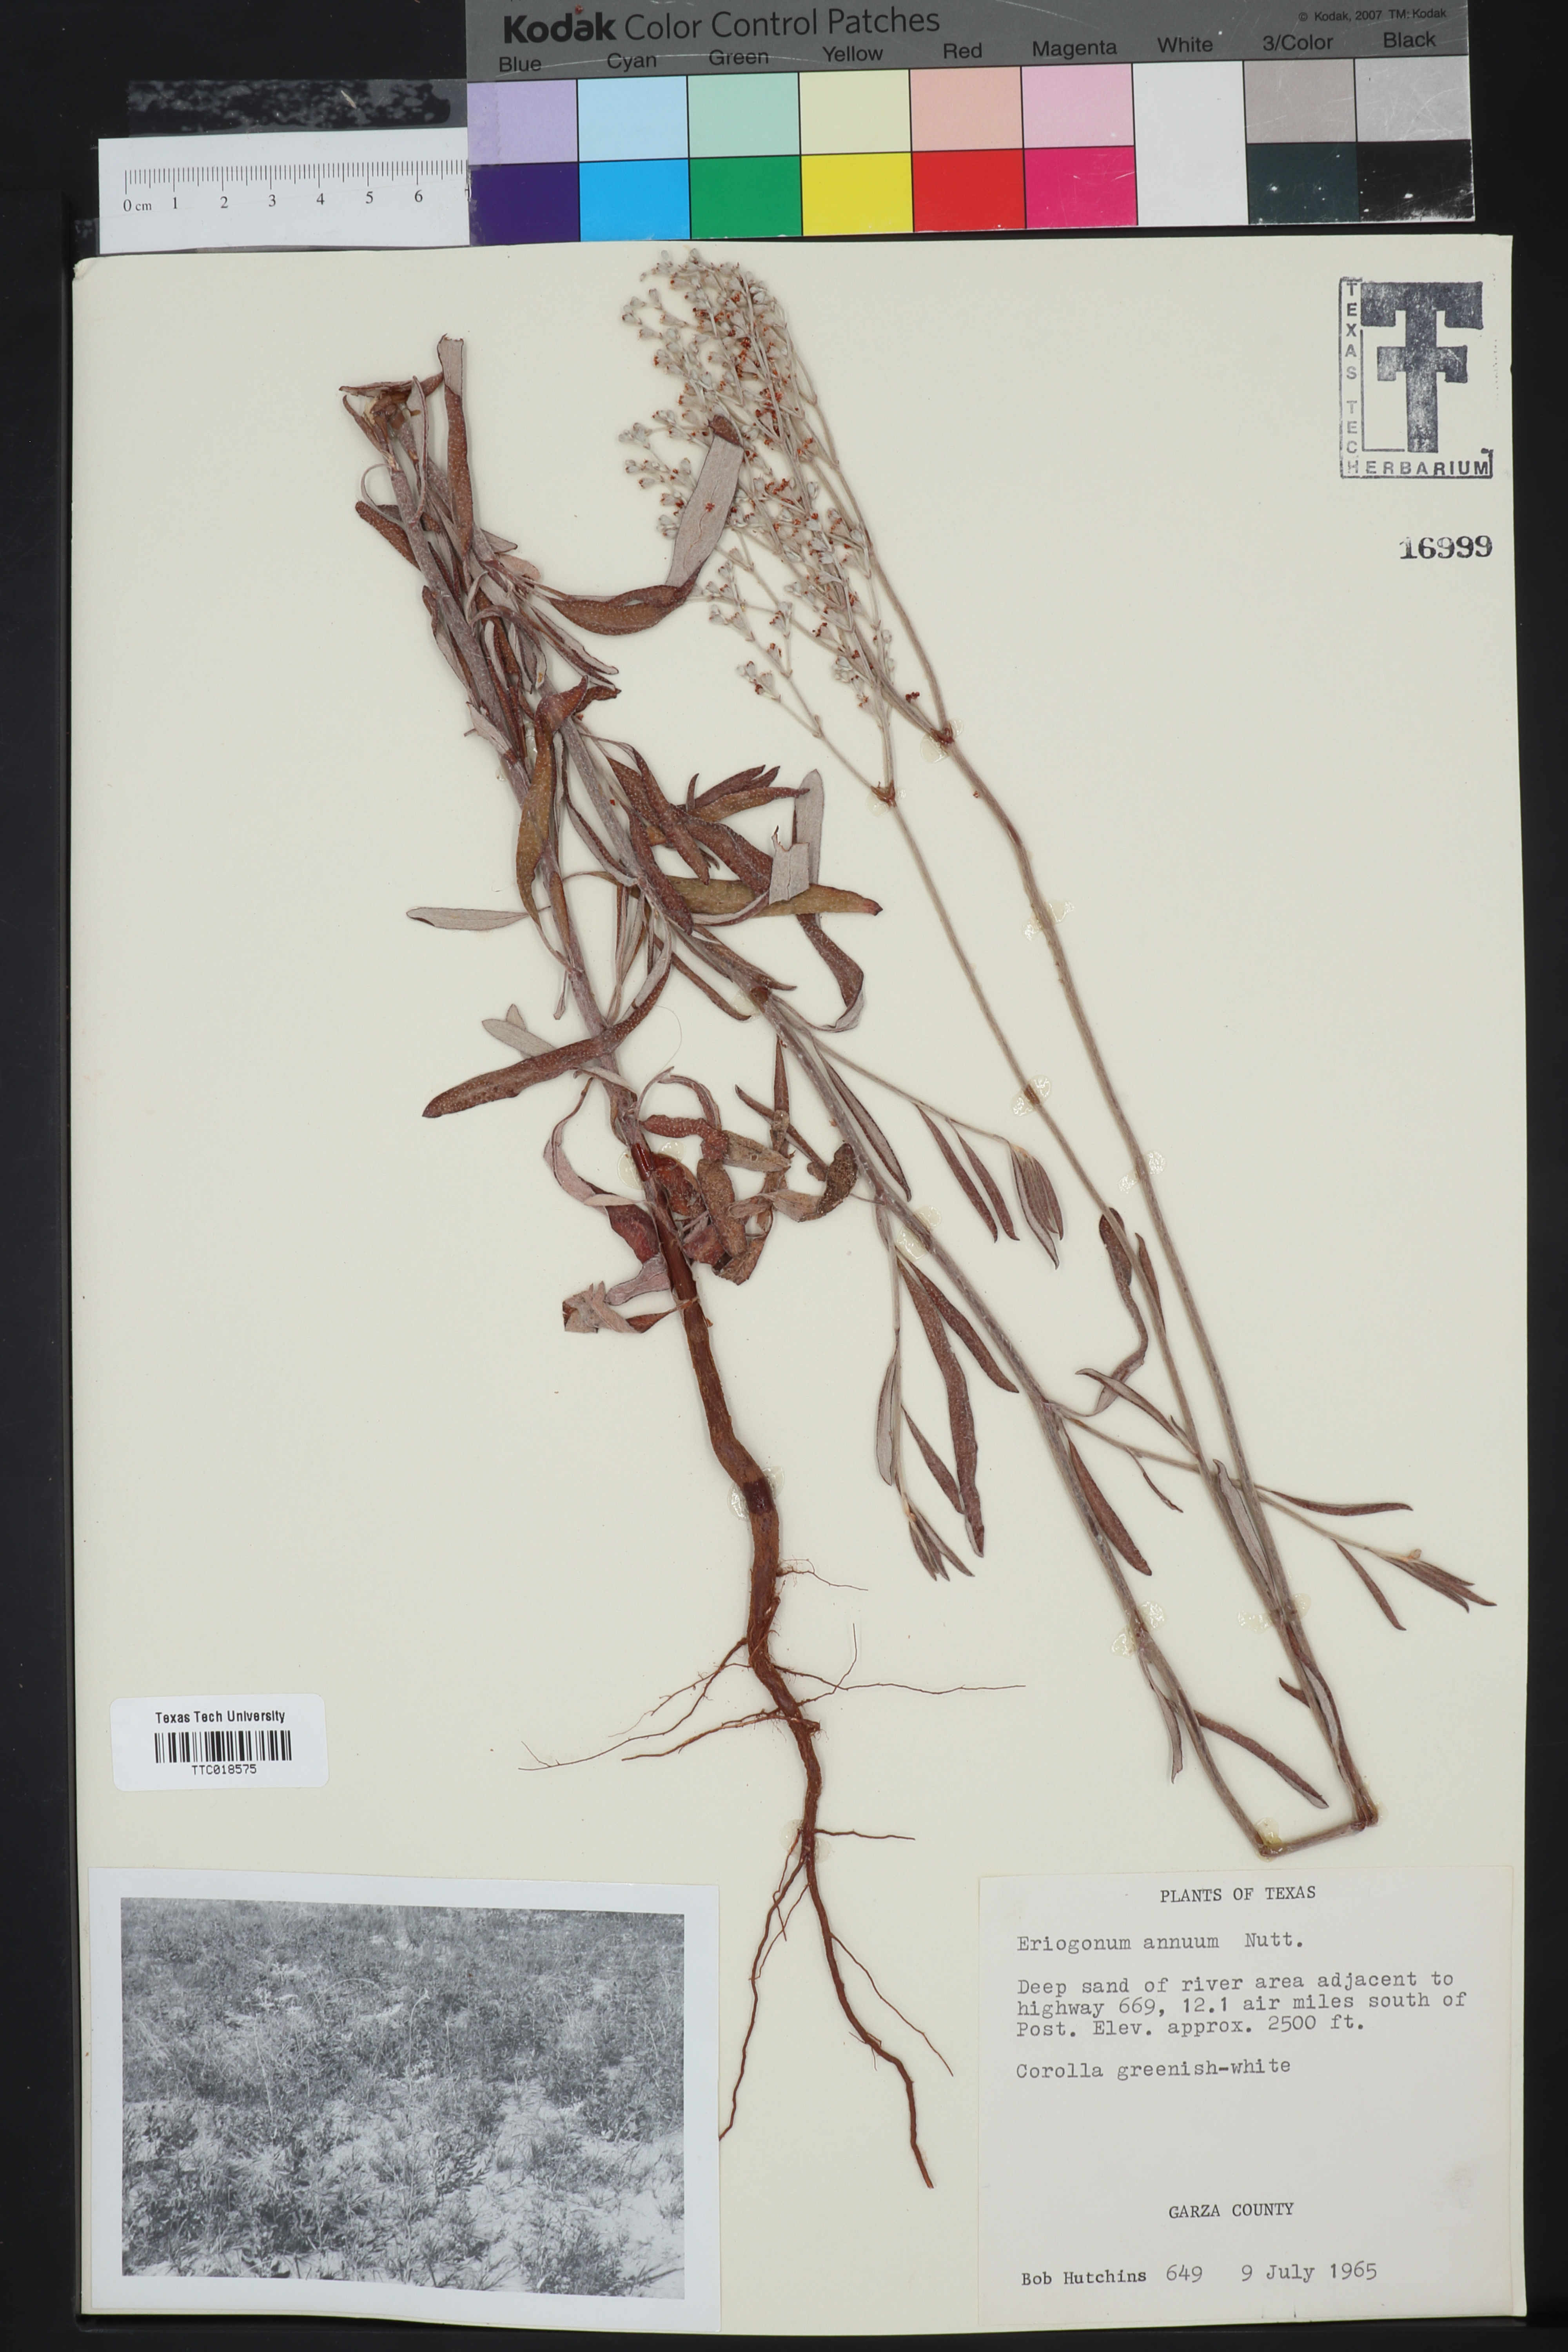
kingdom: Plantae
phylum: Tracheophyta
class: Magnoliopsida
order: Caryophyllales
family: Polygonaceae
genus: Eriogonum
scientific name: Eriogonum annuum
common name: Annual wild buckwheat
